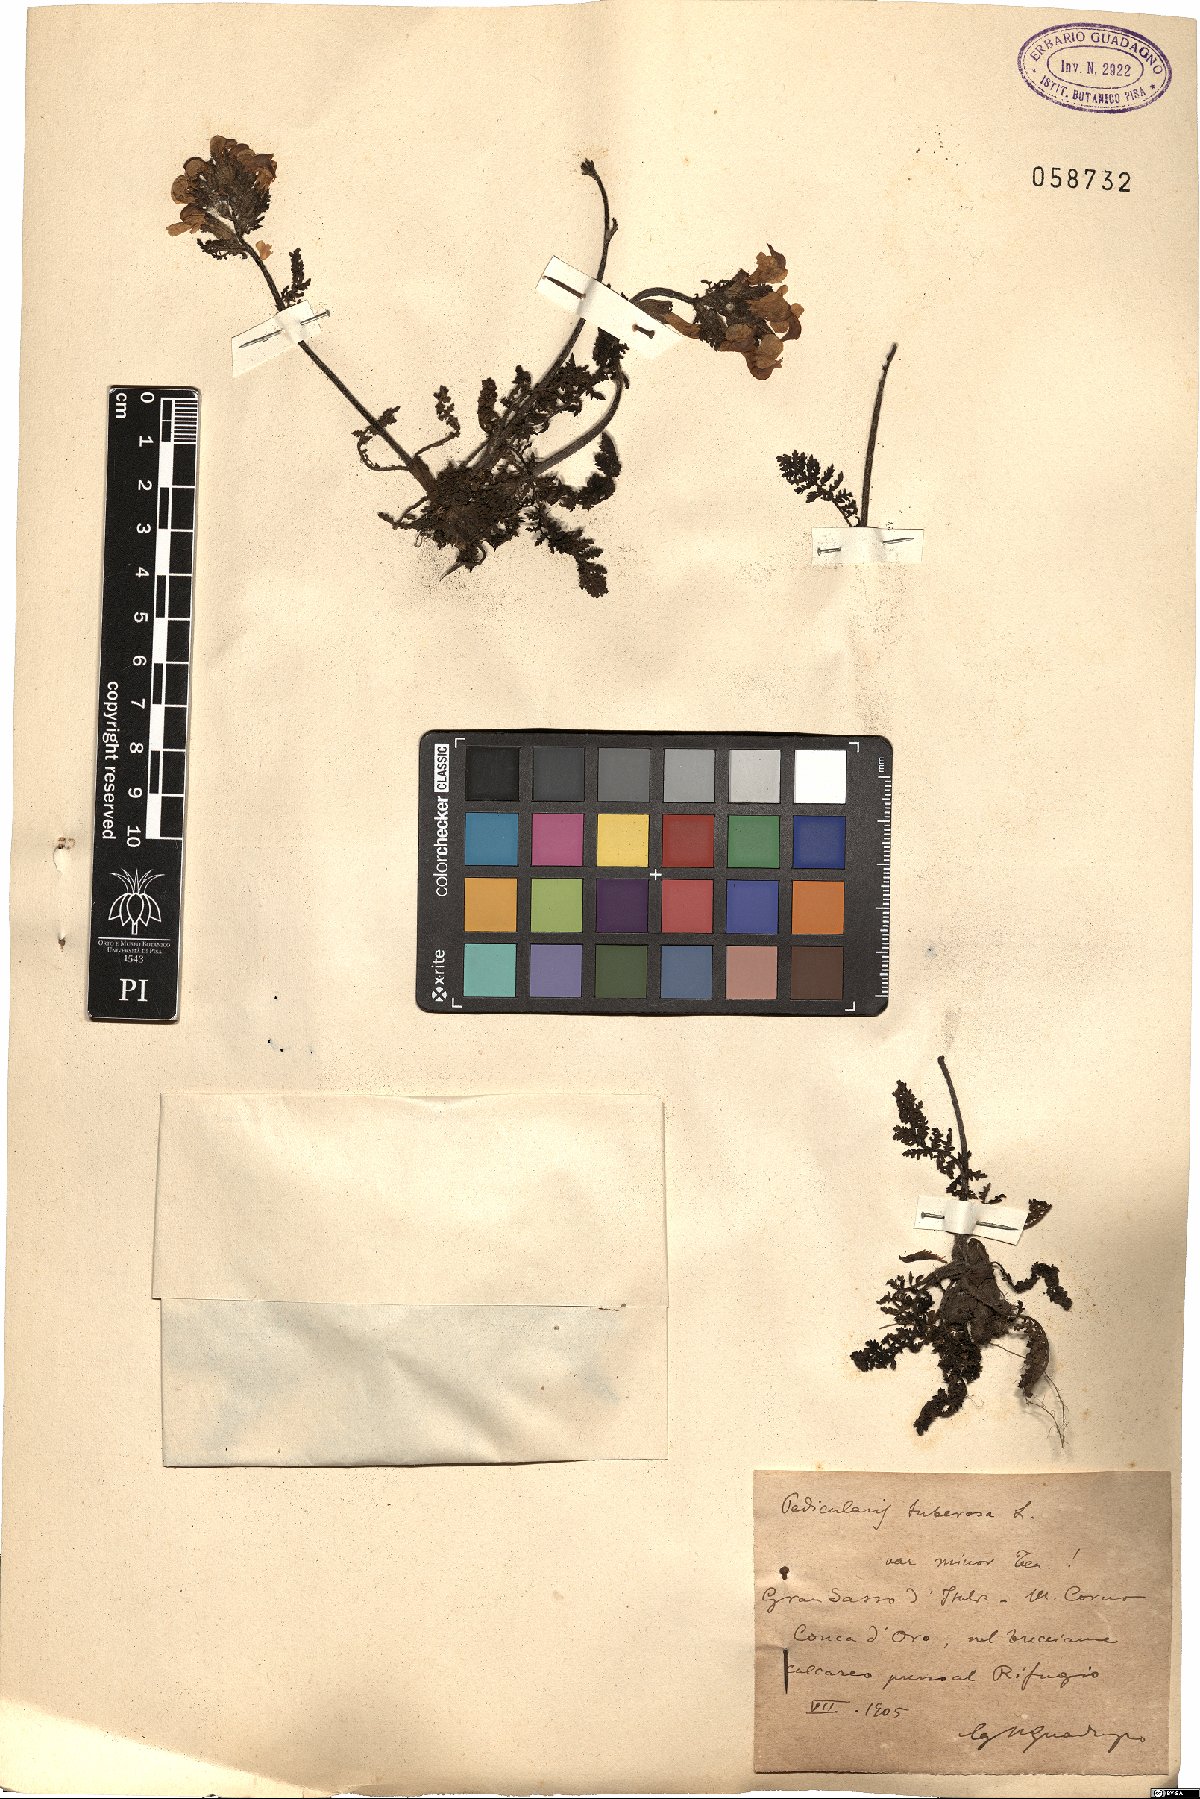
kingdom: Plantae
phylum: Tracheophyta
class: Magnoliopsida
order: Lamiales
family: Orobanchaceae
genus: Pedicularis
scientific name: Pedicularis tuberosa
